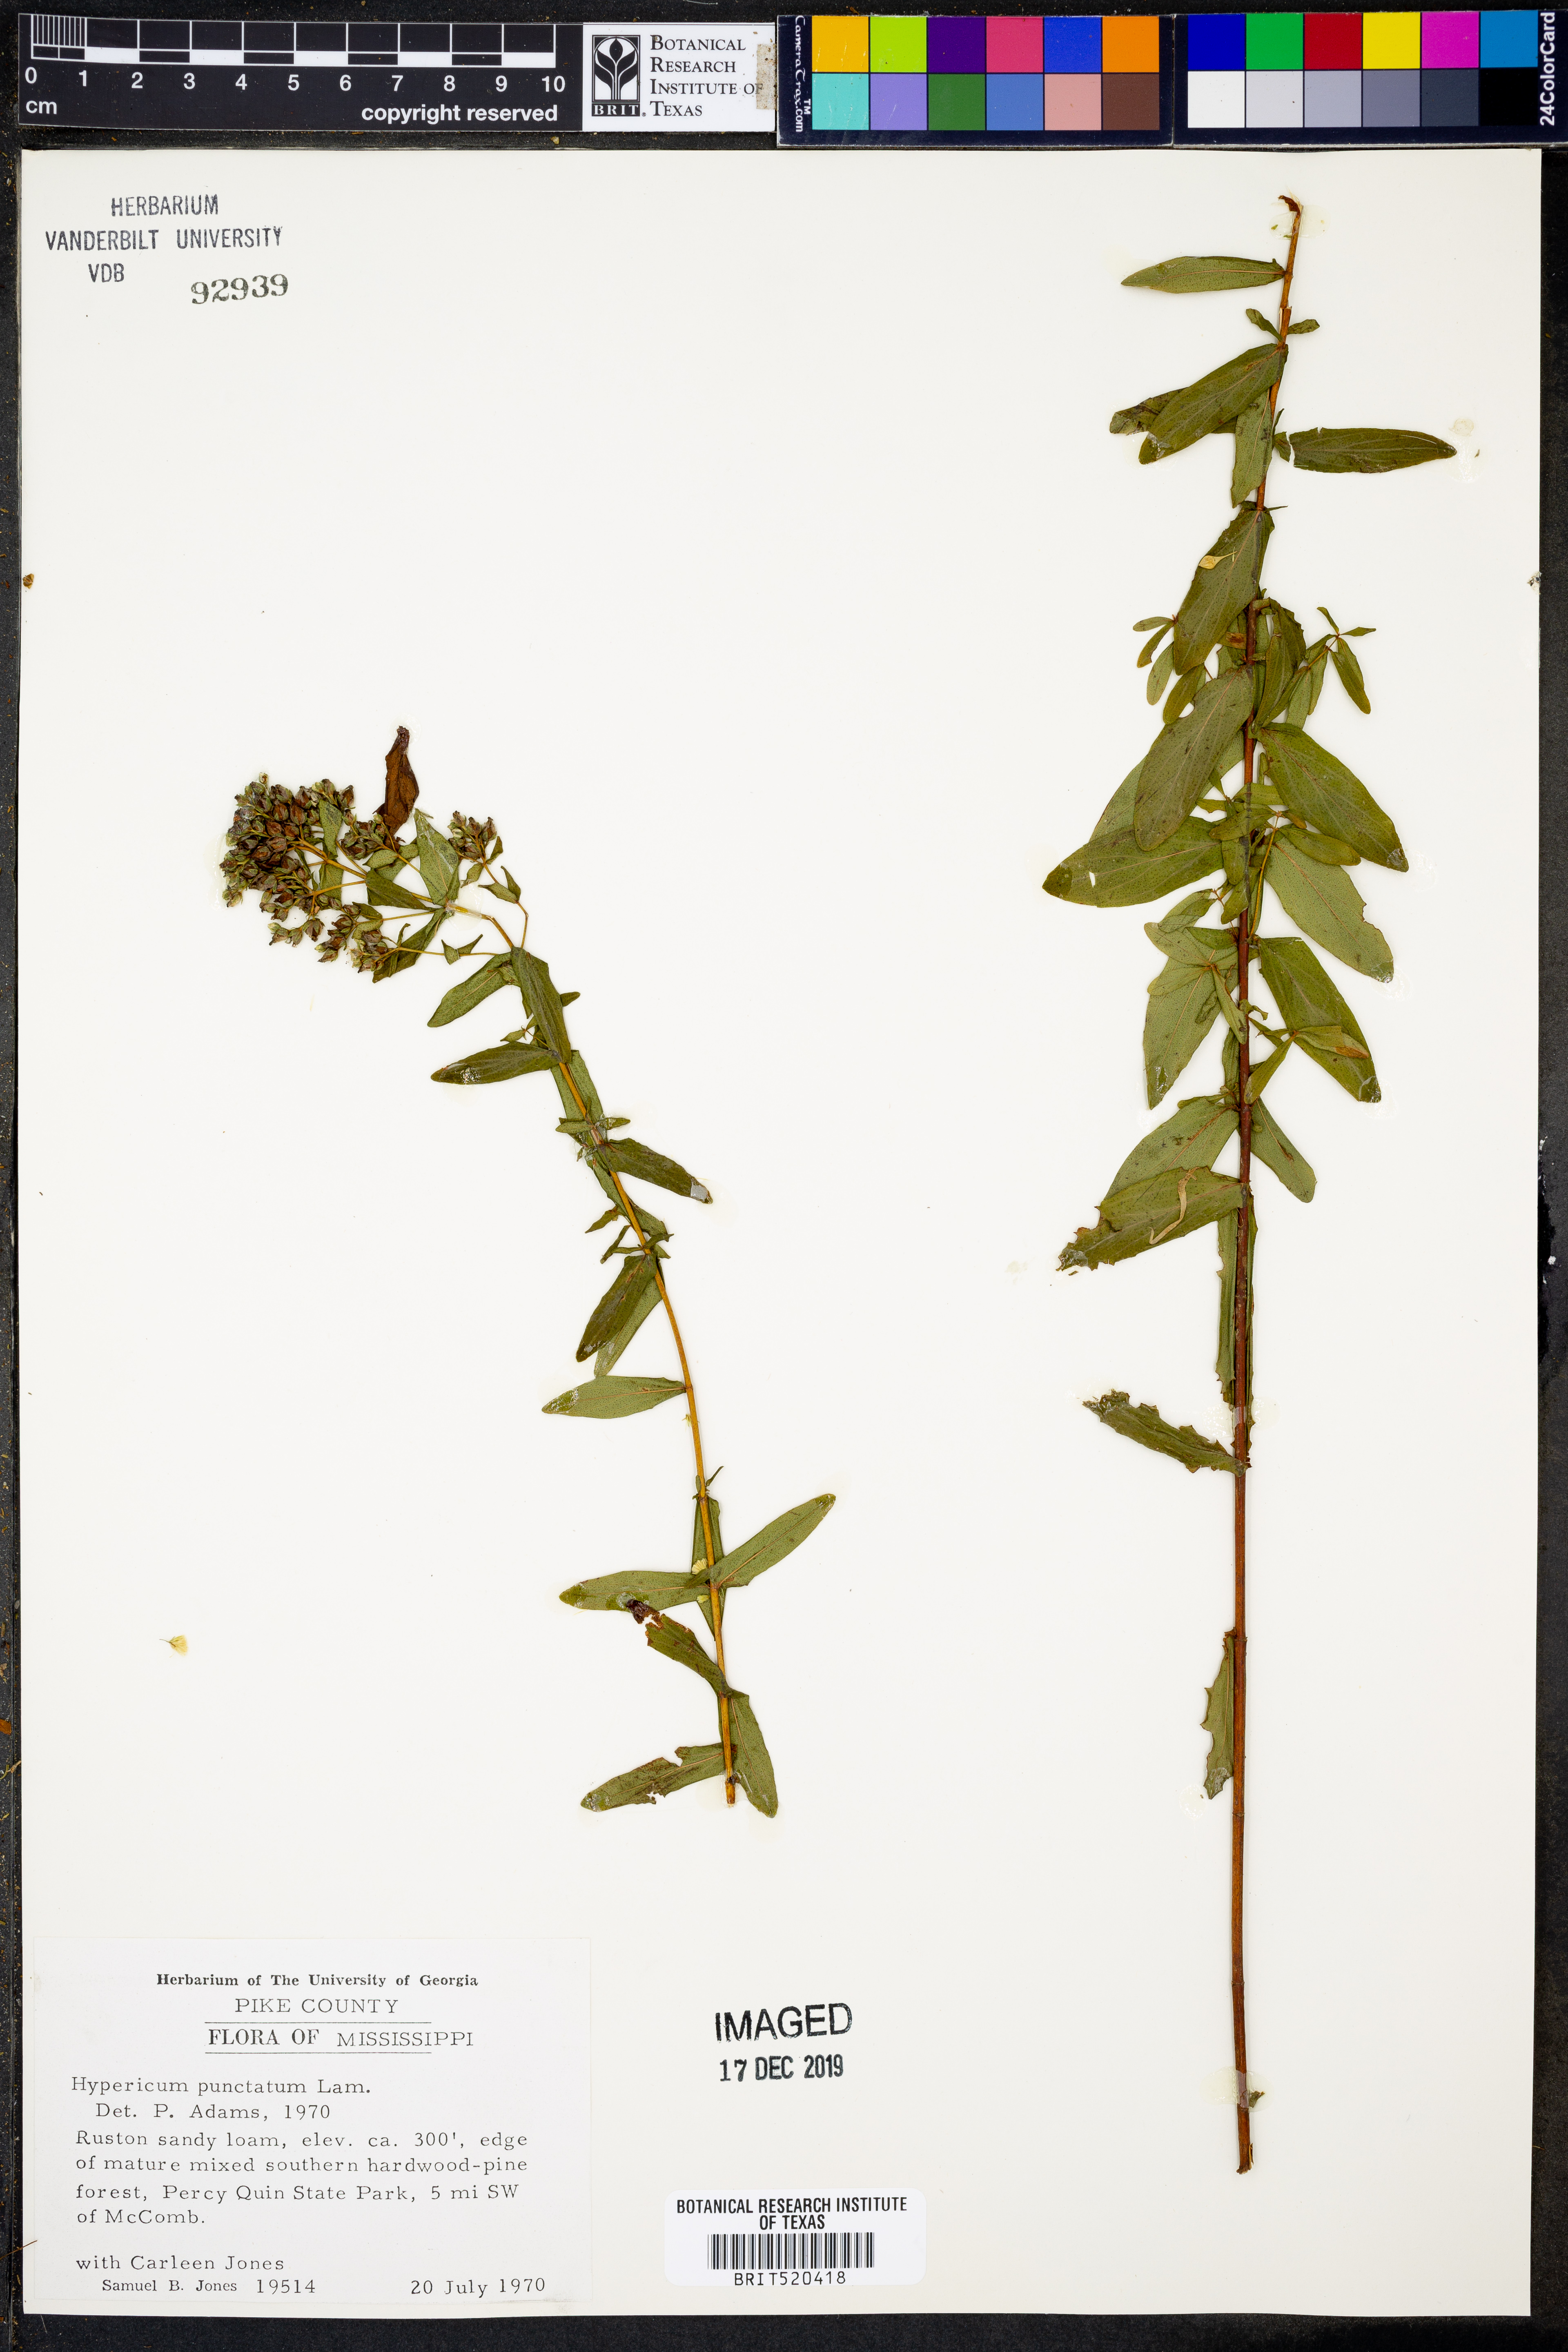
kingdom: Plantae
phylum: Tracheophyta
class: Magnoliopsida
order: Malpighiales
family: Hypericaceae
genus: Hypericum
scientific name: Hypericum punctatum
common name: Spotted st. john's-wort
